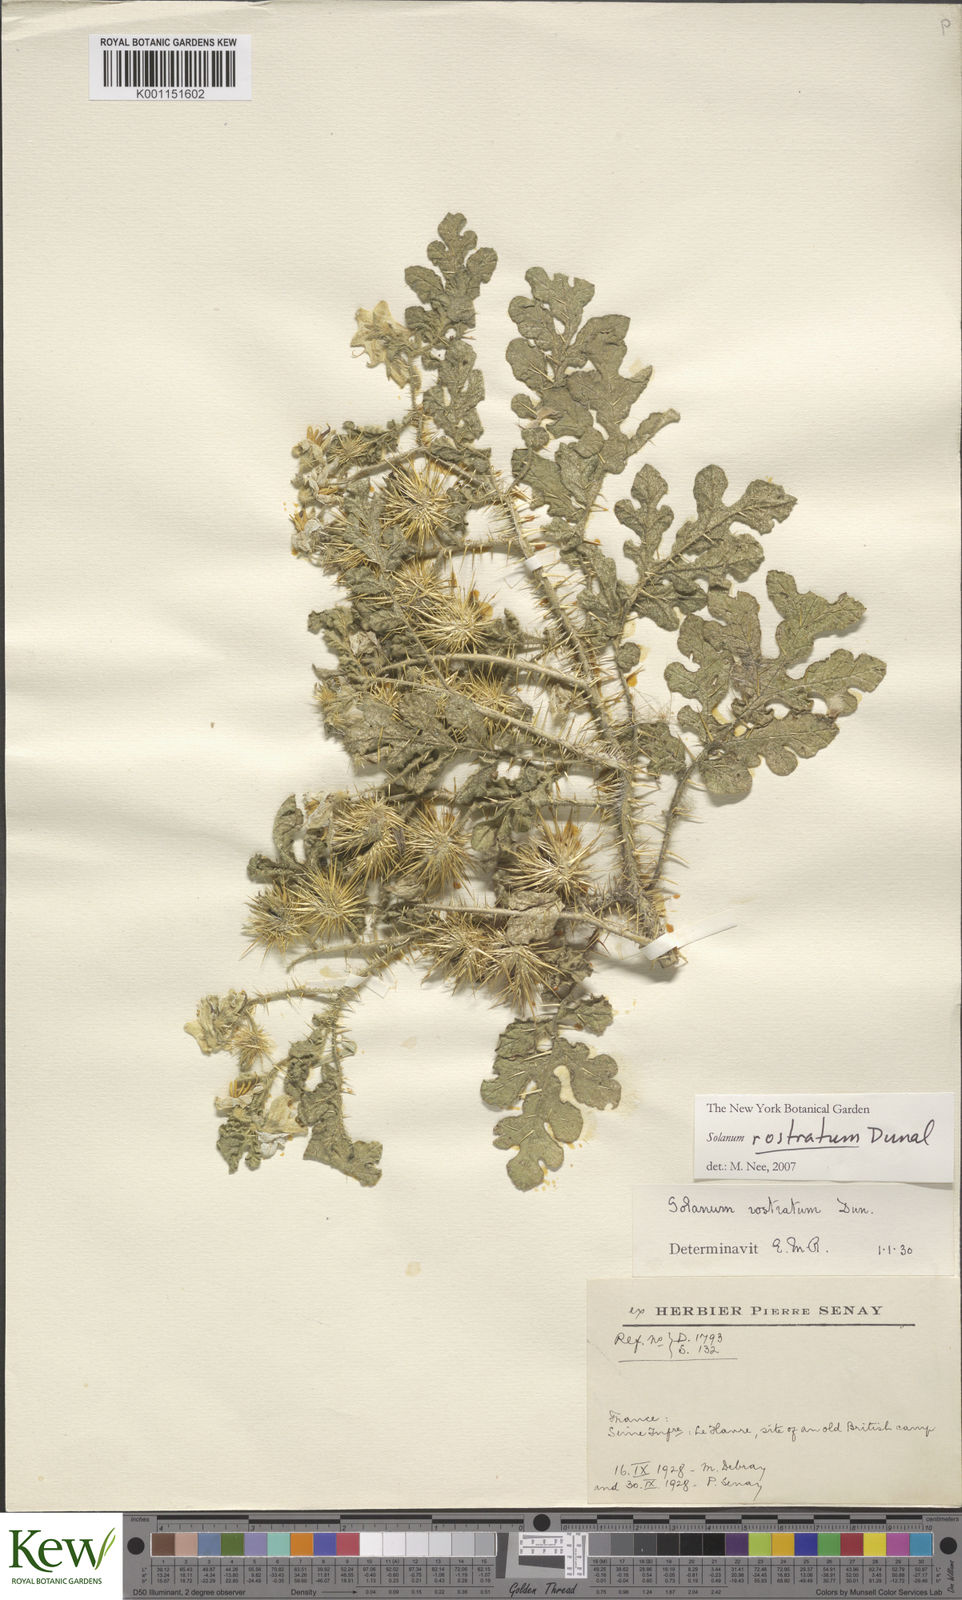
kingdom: Plantae
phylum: Tracheophyta
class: Magnoliopsida
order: Solanales
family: Solanaceae
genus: Solanum
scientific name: Solanum angustifolium
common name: Buffalobur nightshade
